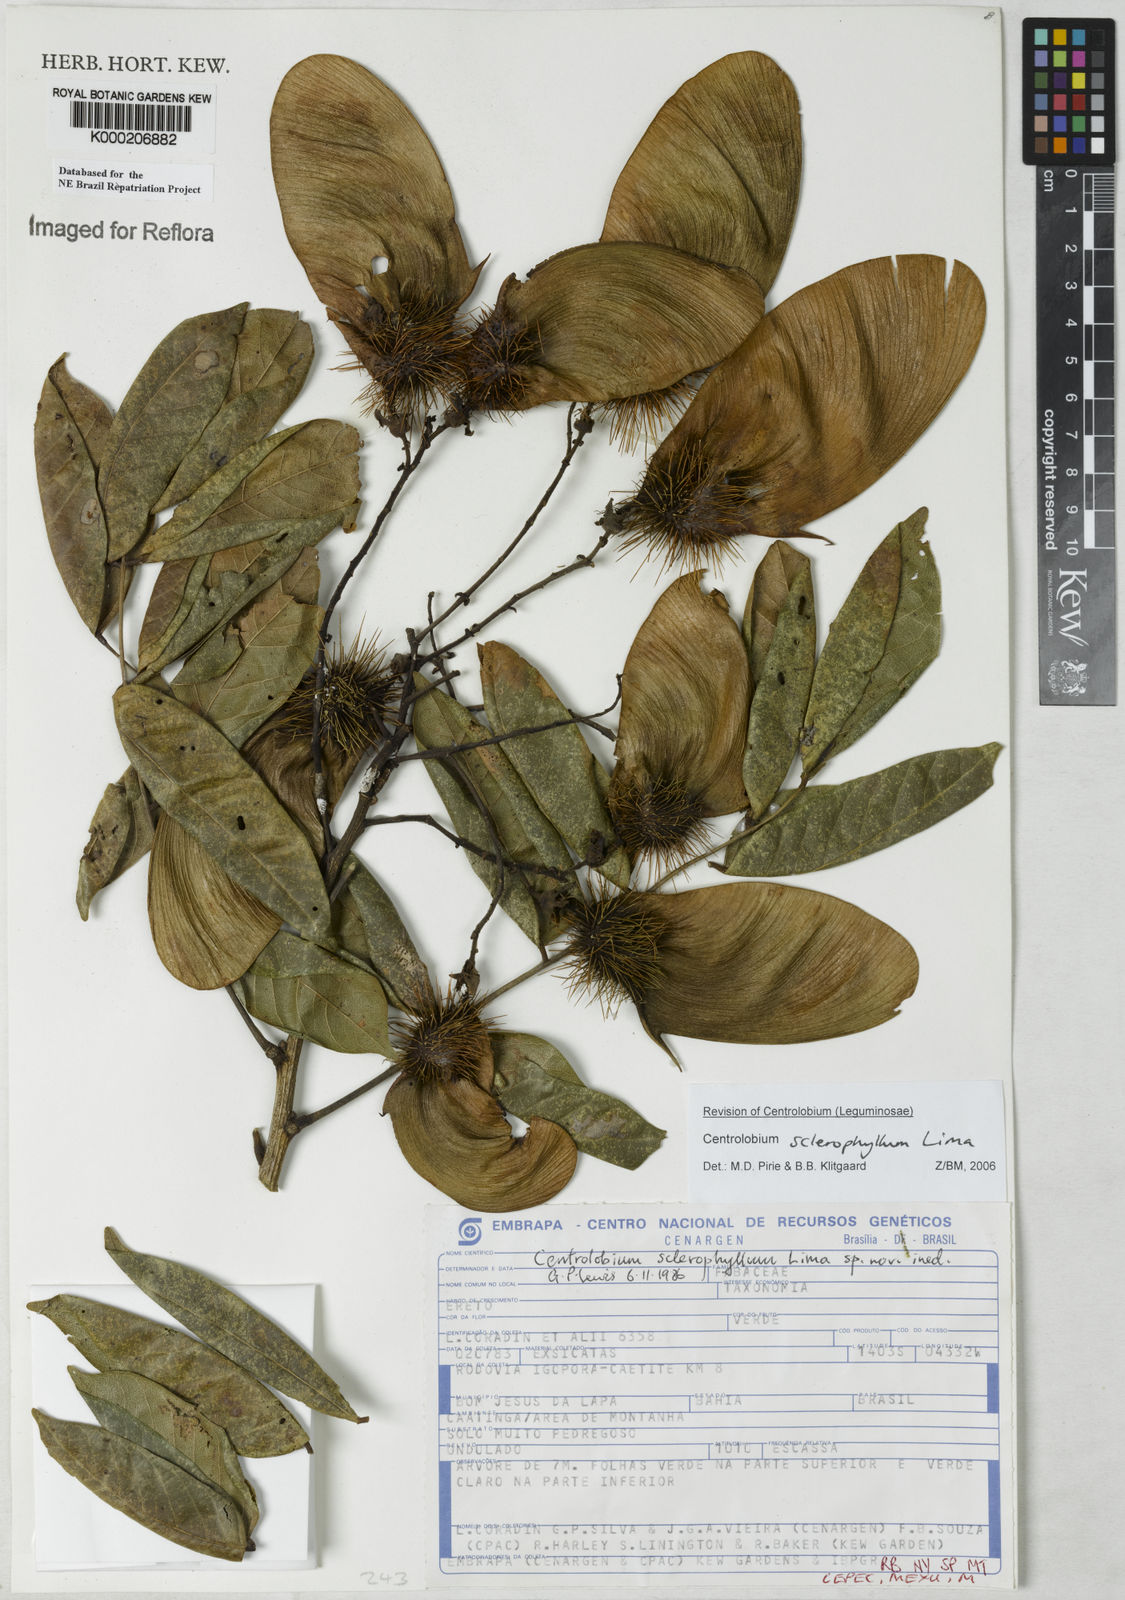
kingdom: Plantae
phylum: Tracheophyta
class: Magnoliopsida
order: Fabales
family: Fabaceae
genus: Centrolobium
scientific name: Centrolobium sclerophyllum
